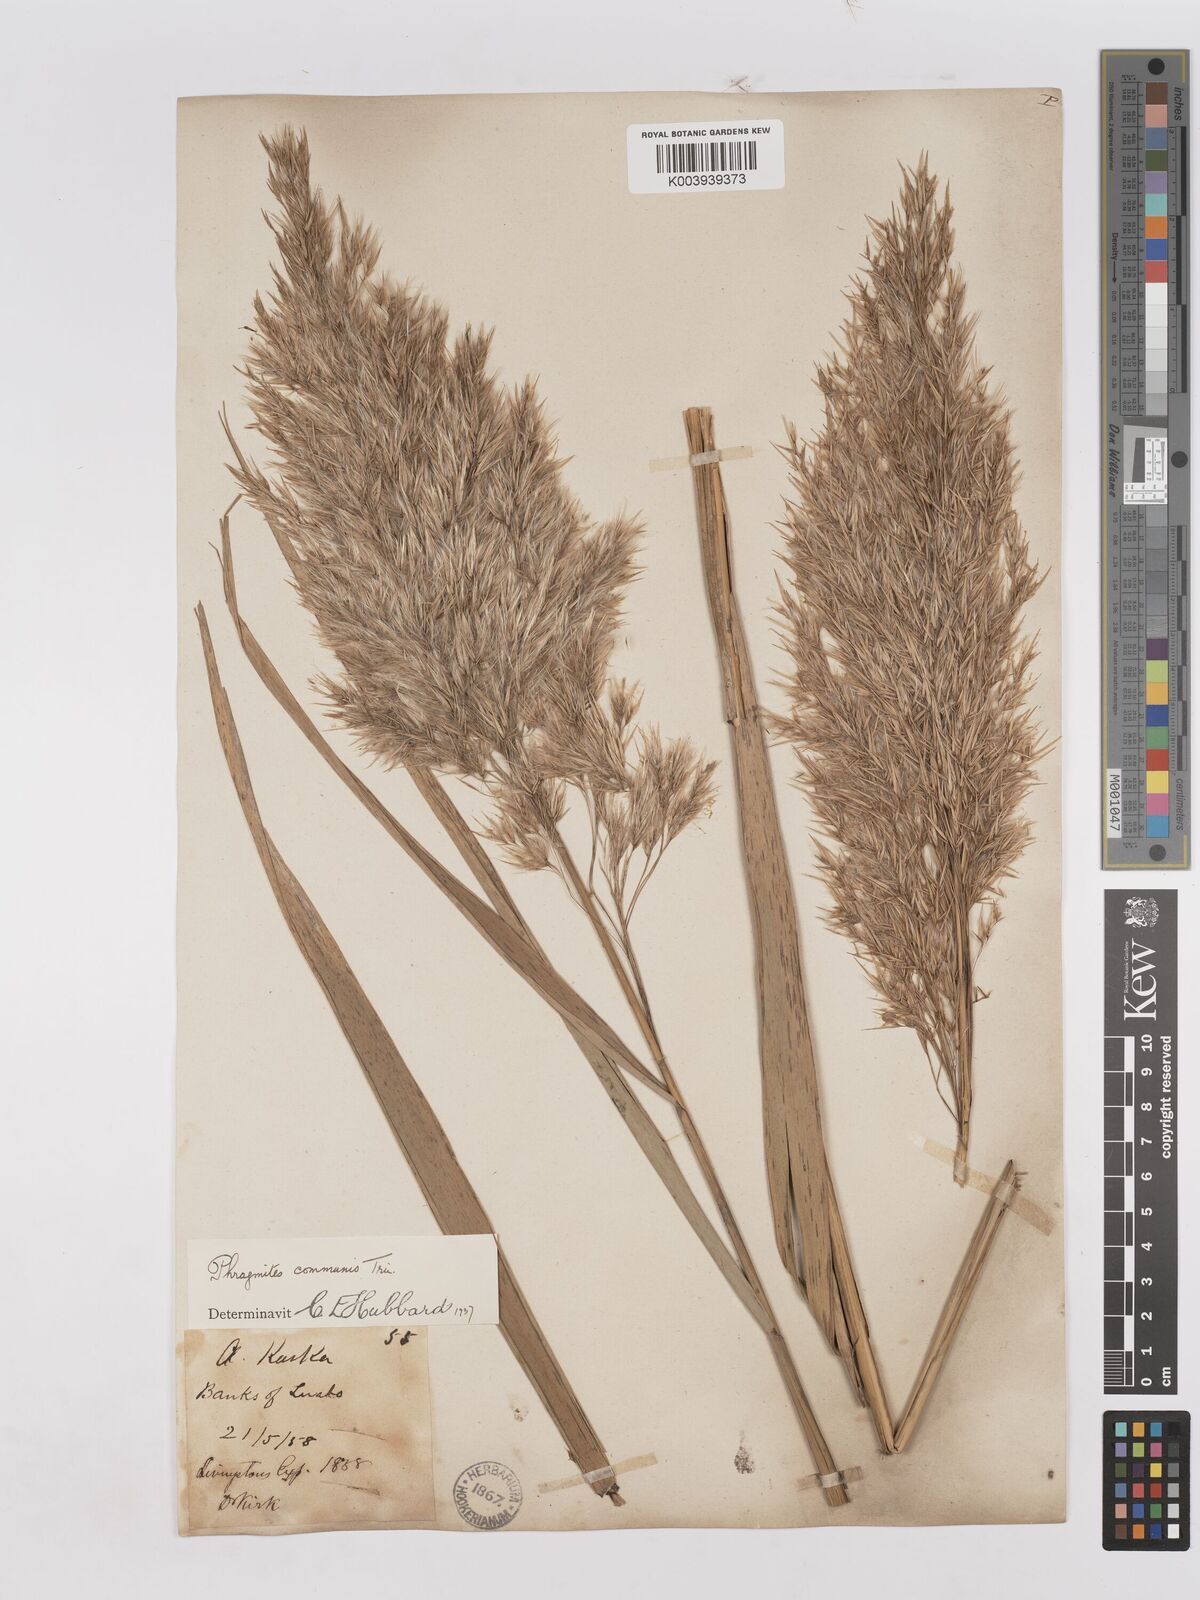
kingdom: Plantae
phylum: Tracheophyta
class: Liliopsida
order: Poales
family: Poaceae
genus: Phragmites
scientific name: Phragmites australis
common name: Common reed
